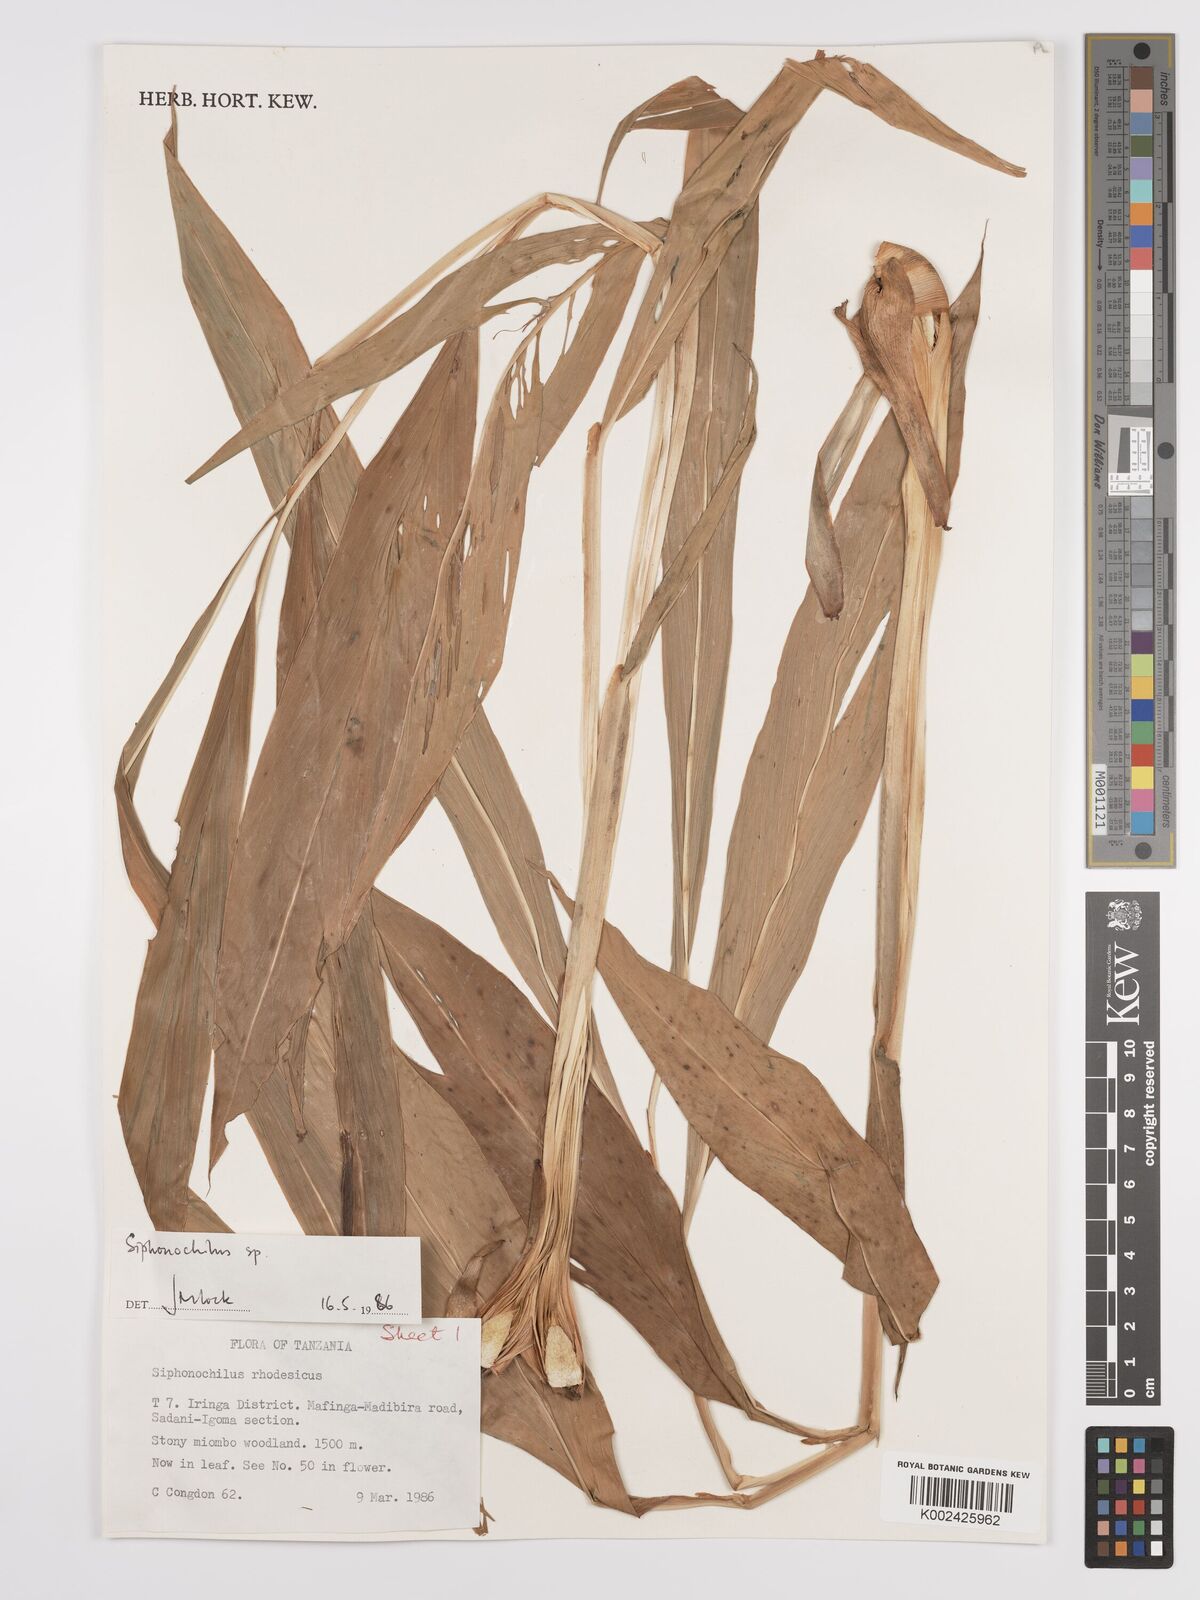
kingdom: Plantae
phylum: Tracheophyta
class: Liliopsida
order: Zingiberales
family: Zingiberaceae
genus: Siphonochilus
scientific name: Siphonochilus
